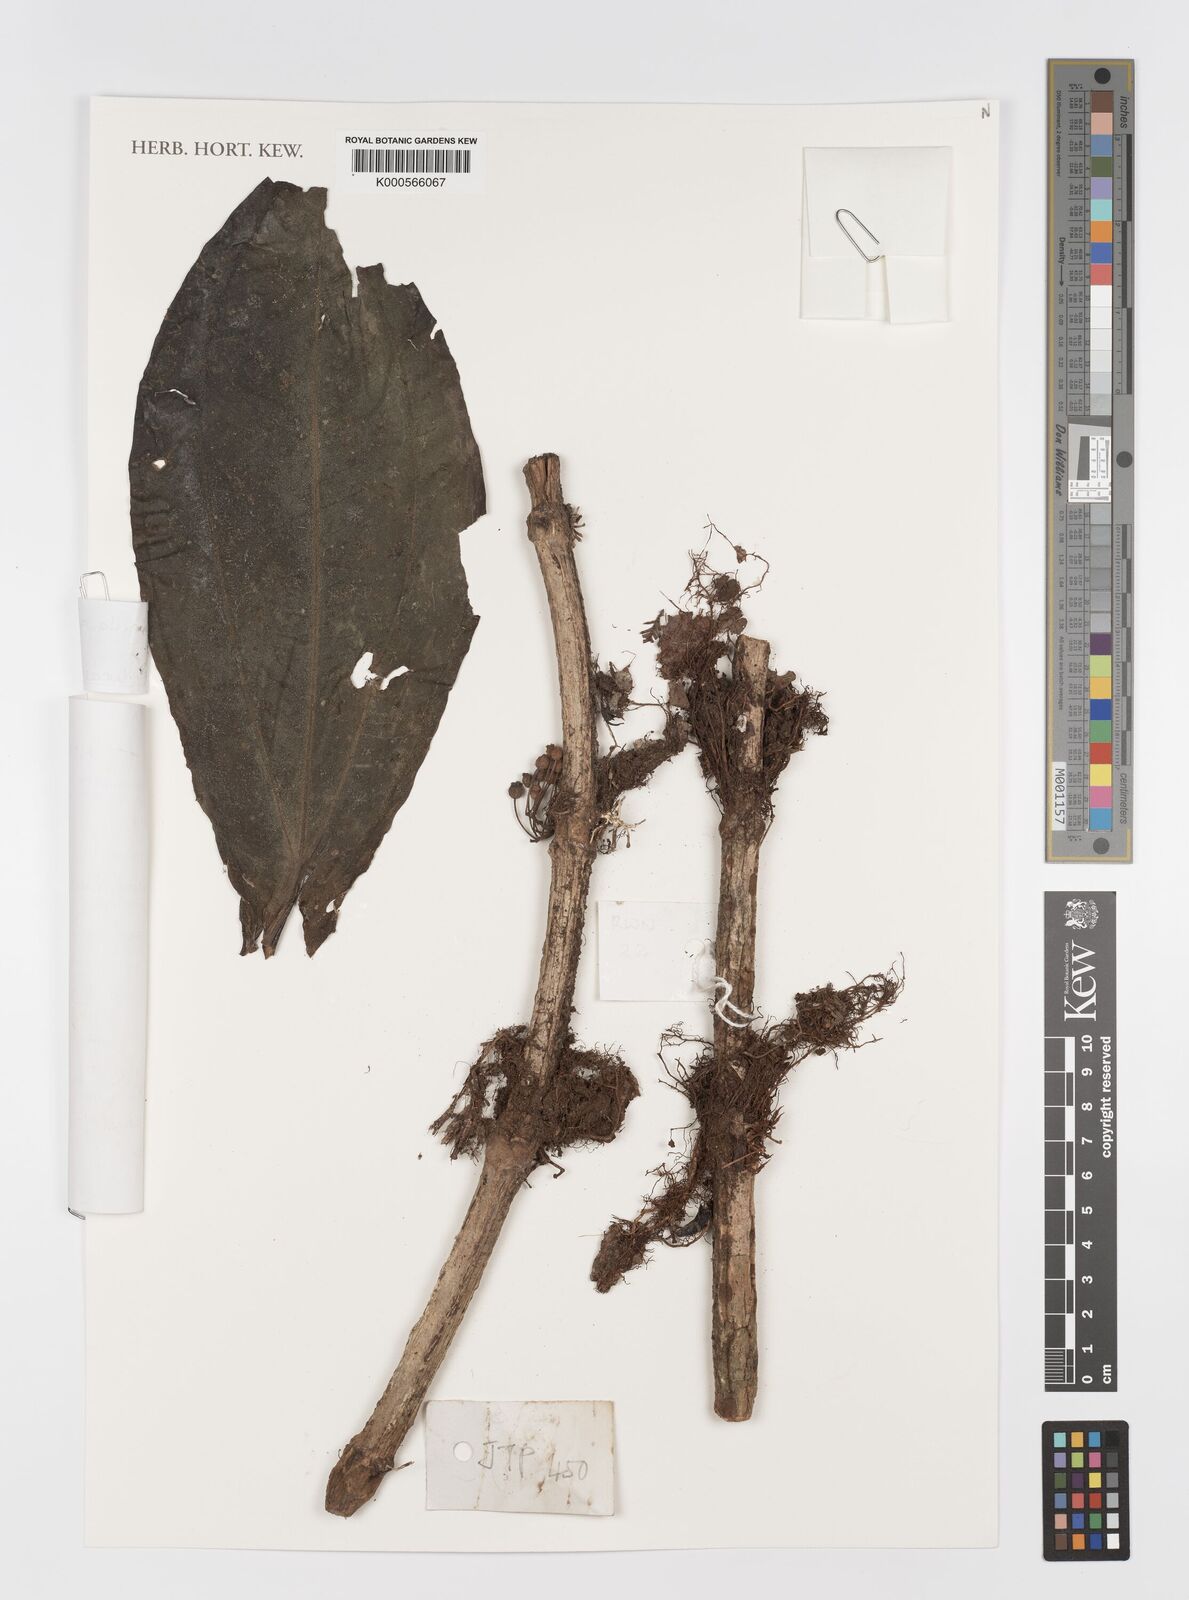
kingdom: Plantae
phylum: Tracheophyta
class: Magnoliopsida
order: Myrtales
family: Melastomataceae
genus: Medinilla
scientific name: Medinilla
